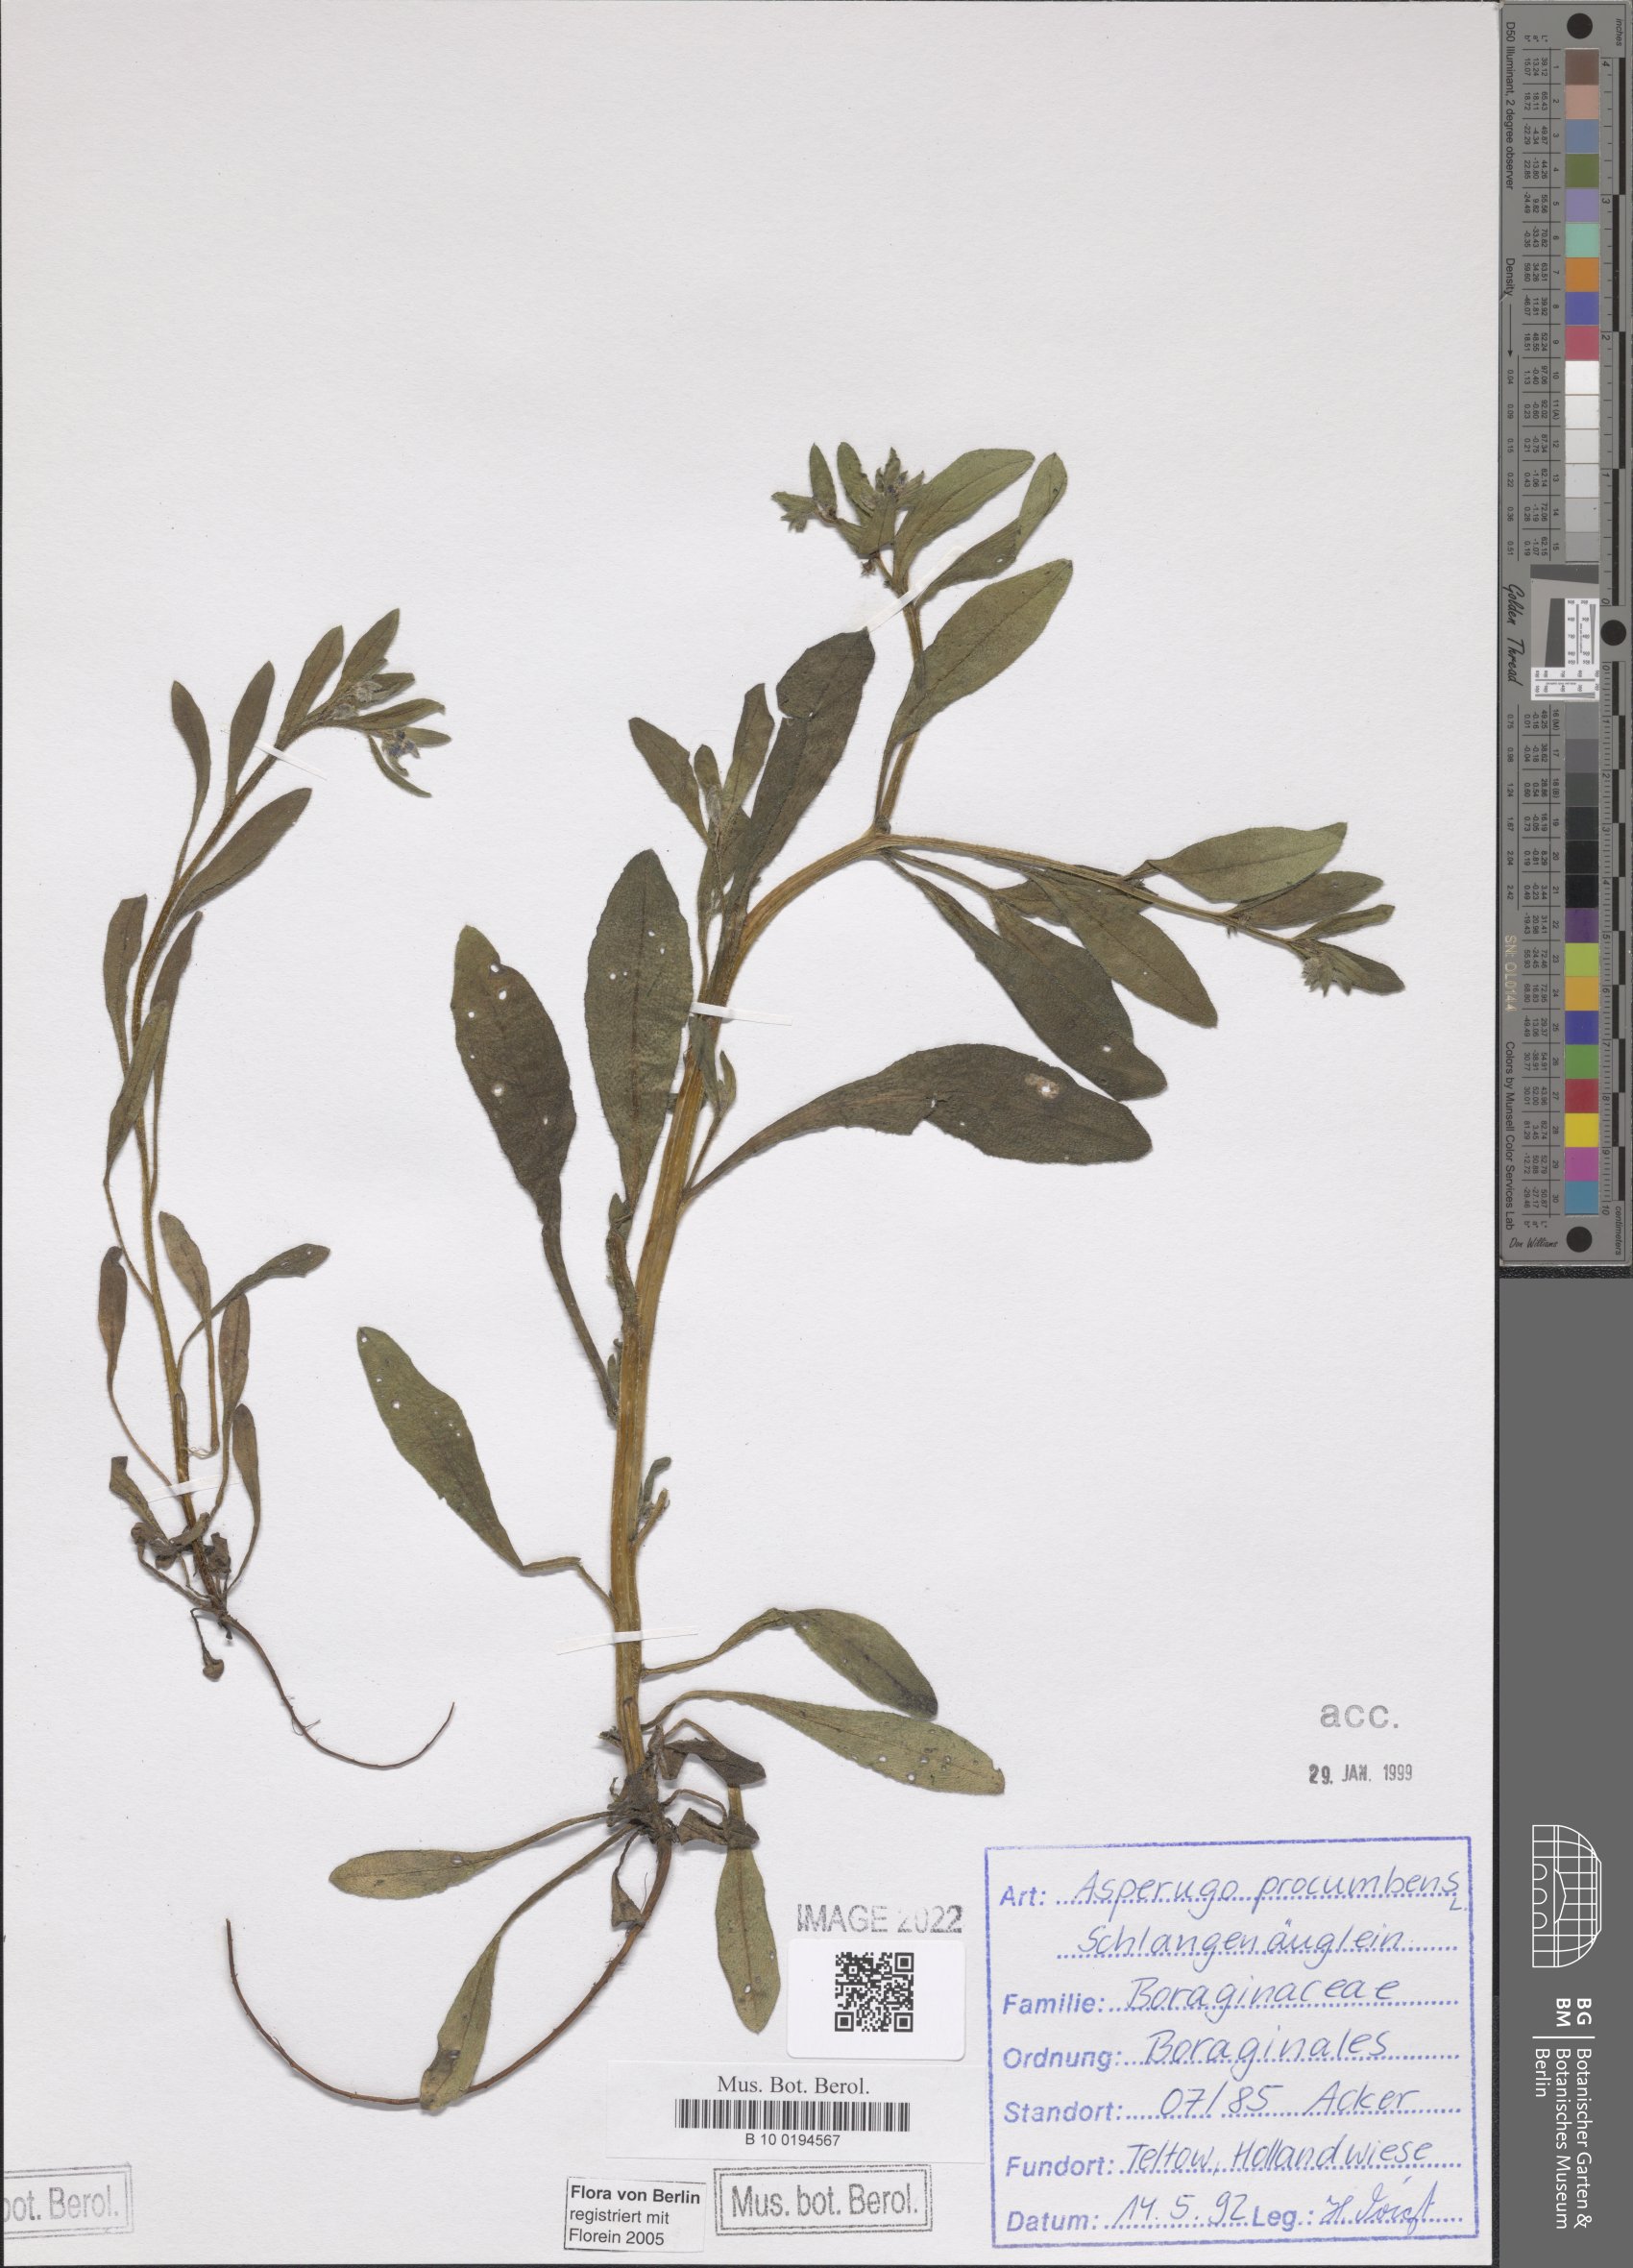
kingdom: Plantae
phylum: Tracheophyta
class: Magnoliopsida
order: Boraginales
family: Boraginaceae
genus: Asperugo
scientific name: Asperugo procumbens
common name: Madwort
